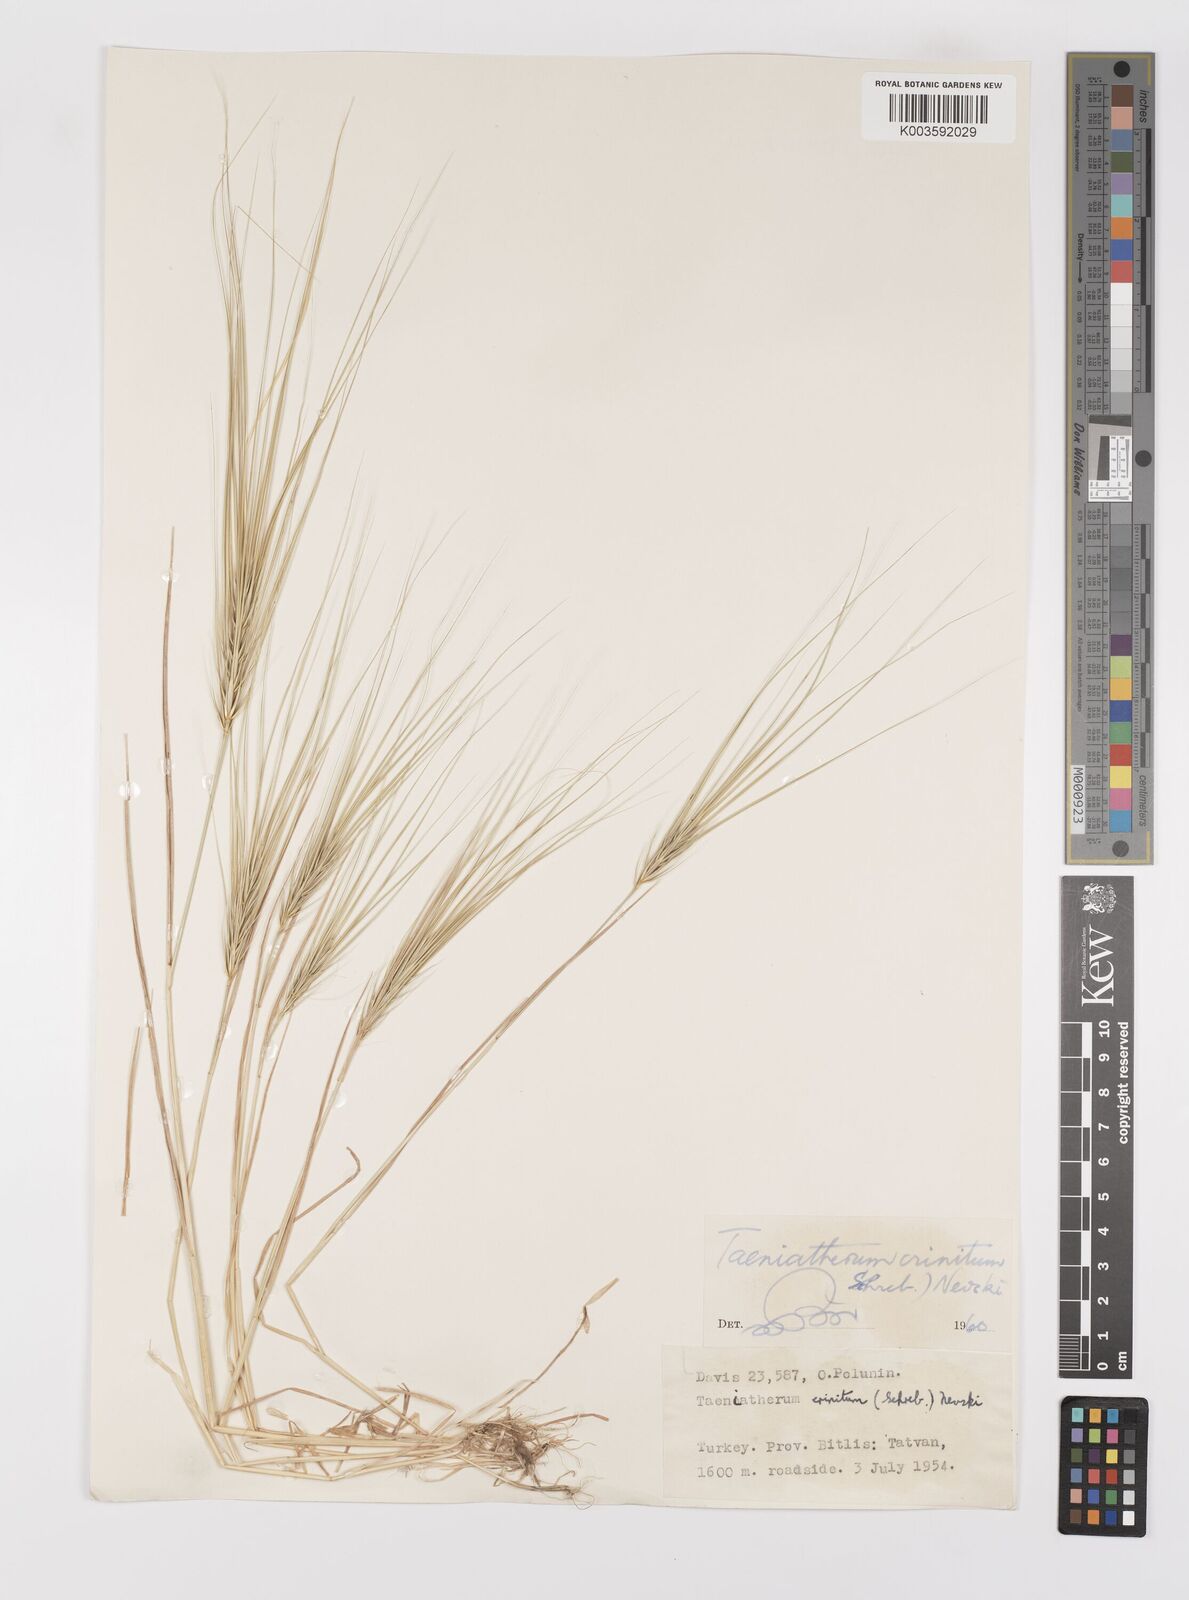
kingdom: Plantae
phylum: Tracheophyta
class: Liliopsida
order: Poales
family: Poaceae
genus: Taeniatherum
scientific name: Taeniatherum caput-medusae
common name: Medusahead
